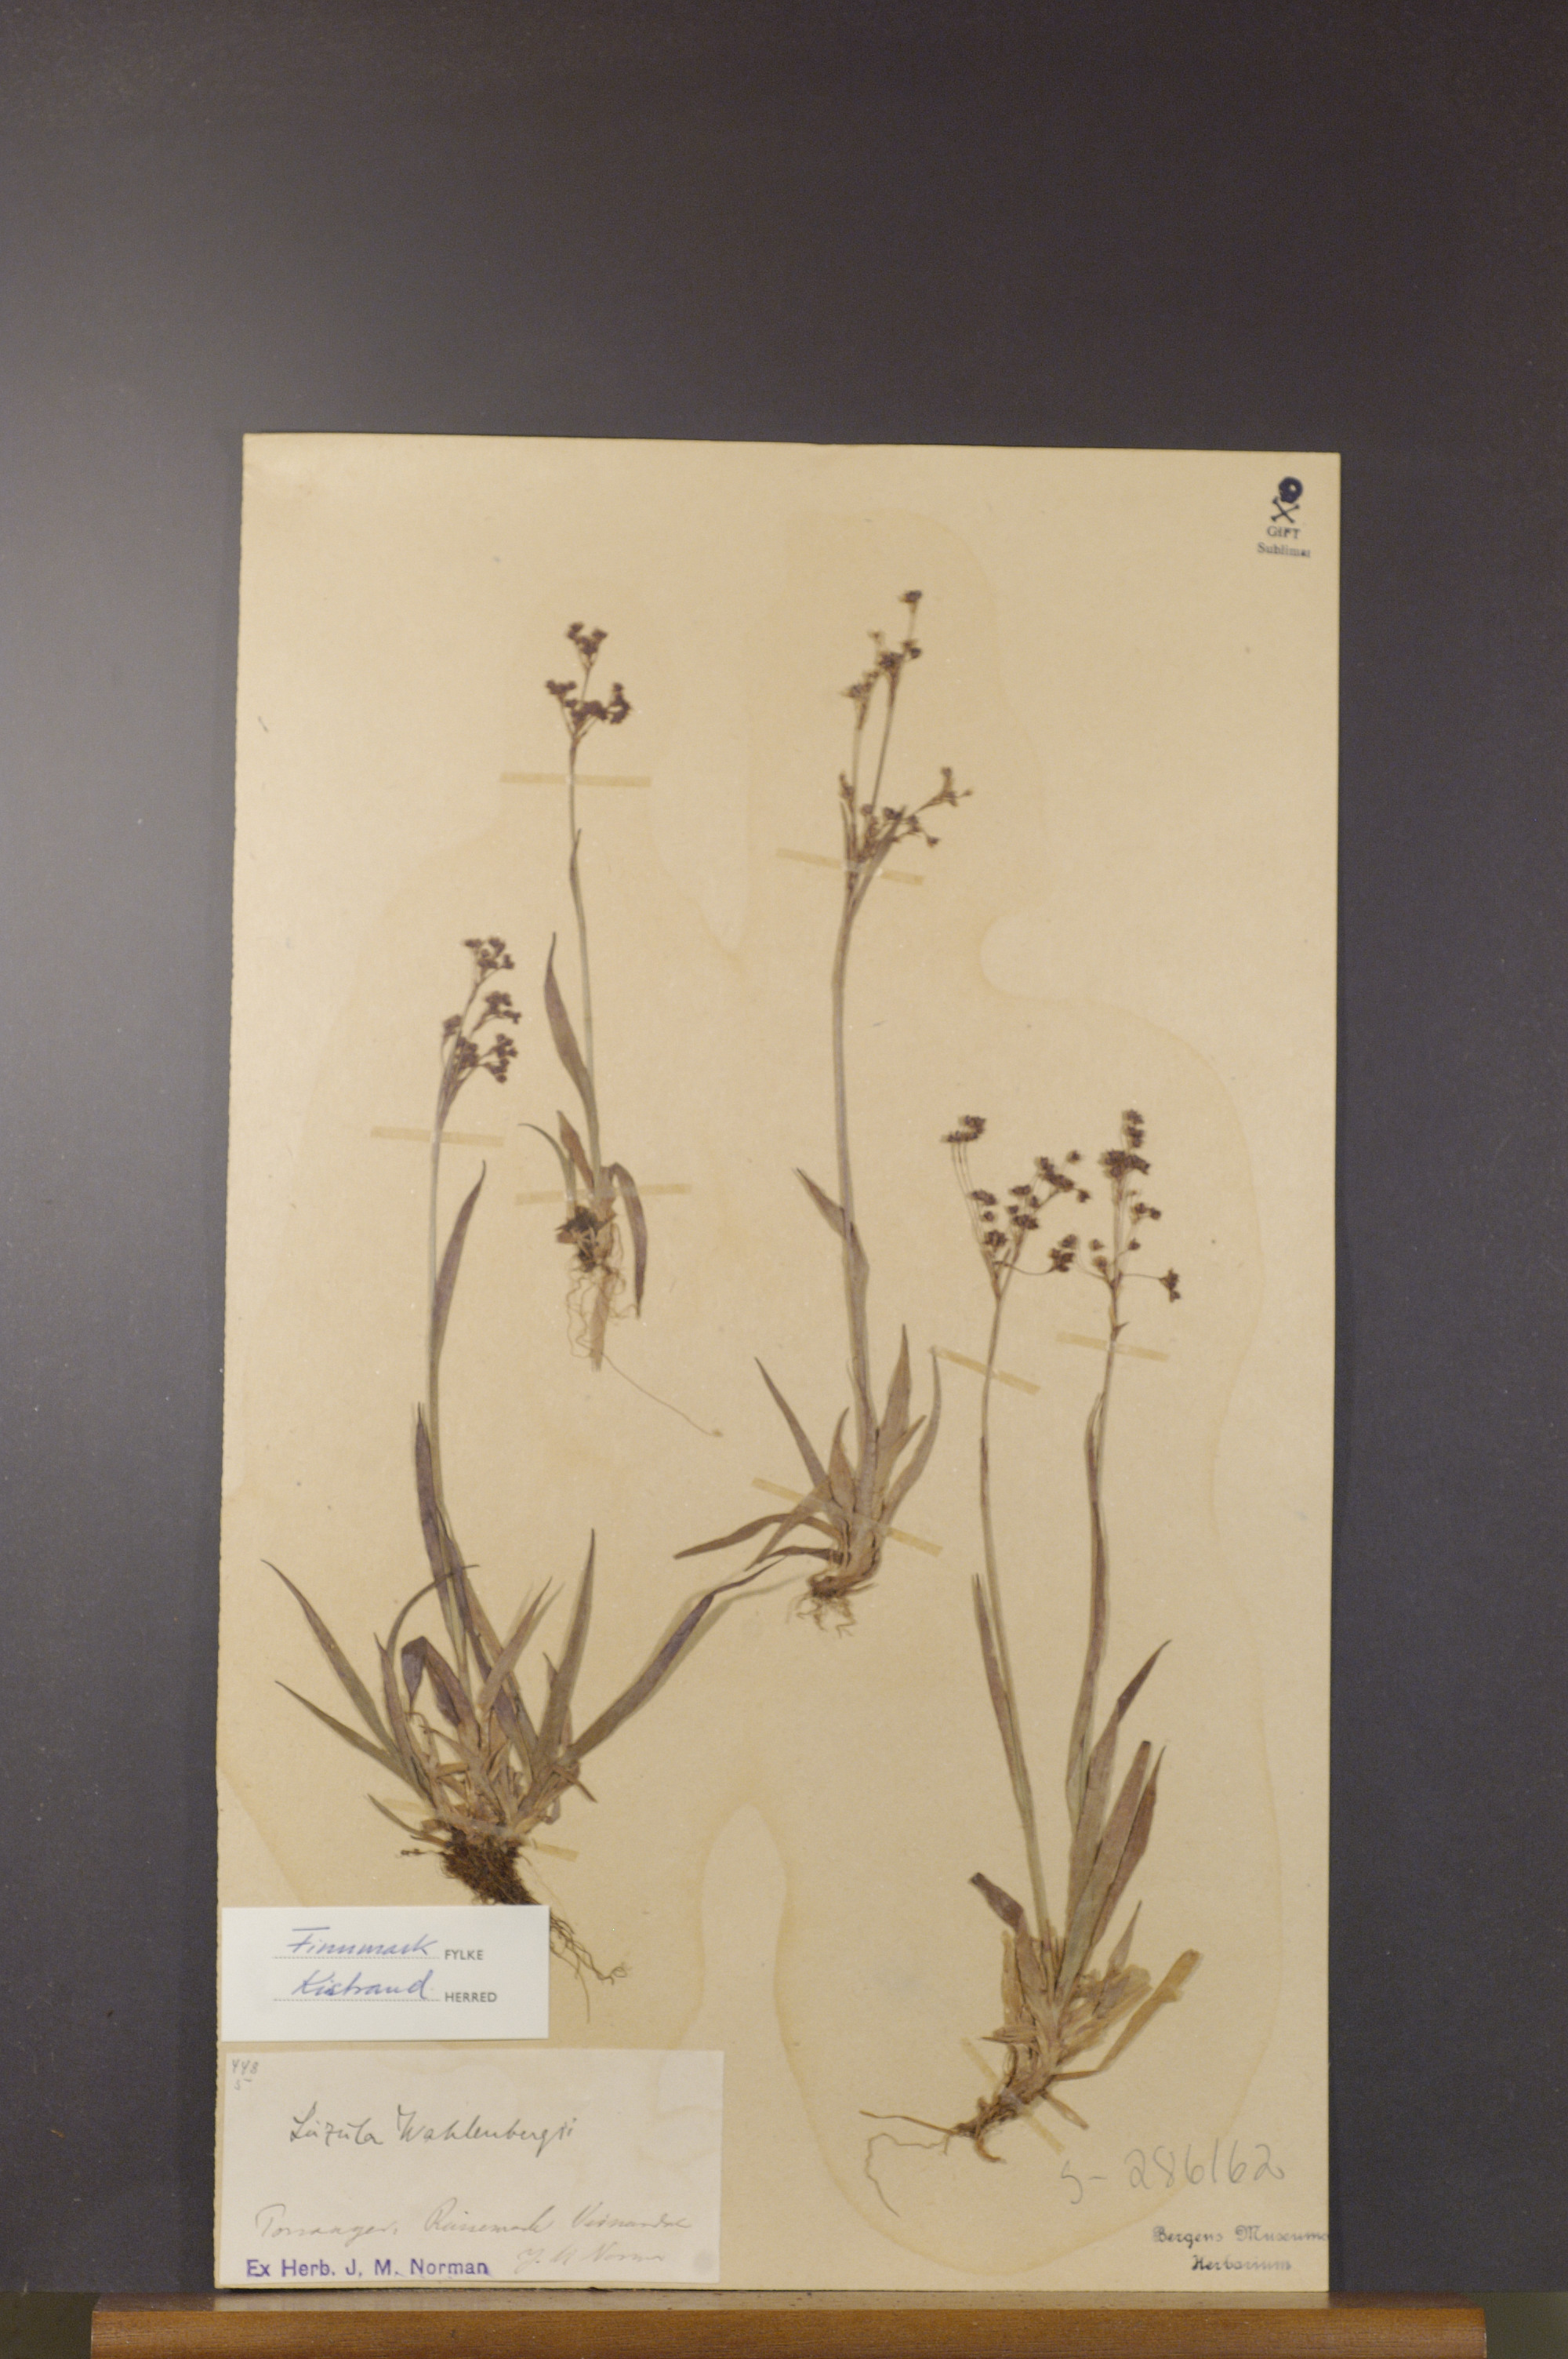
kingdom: Plantae
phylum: Tracheophyta
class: Liliopsida
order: Poales
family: Juncaceae
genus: Luzula
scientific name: Luzula wahlenbergii
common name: Wahlenberg's wood-rush
